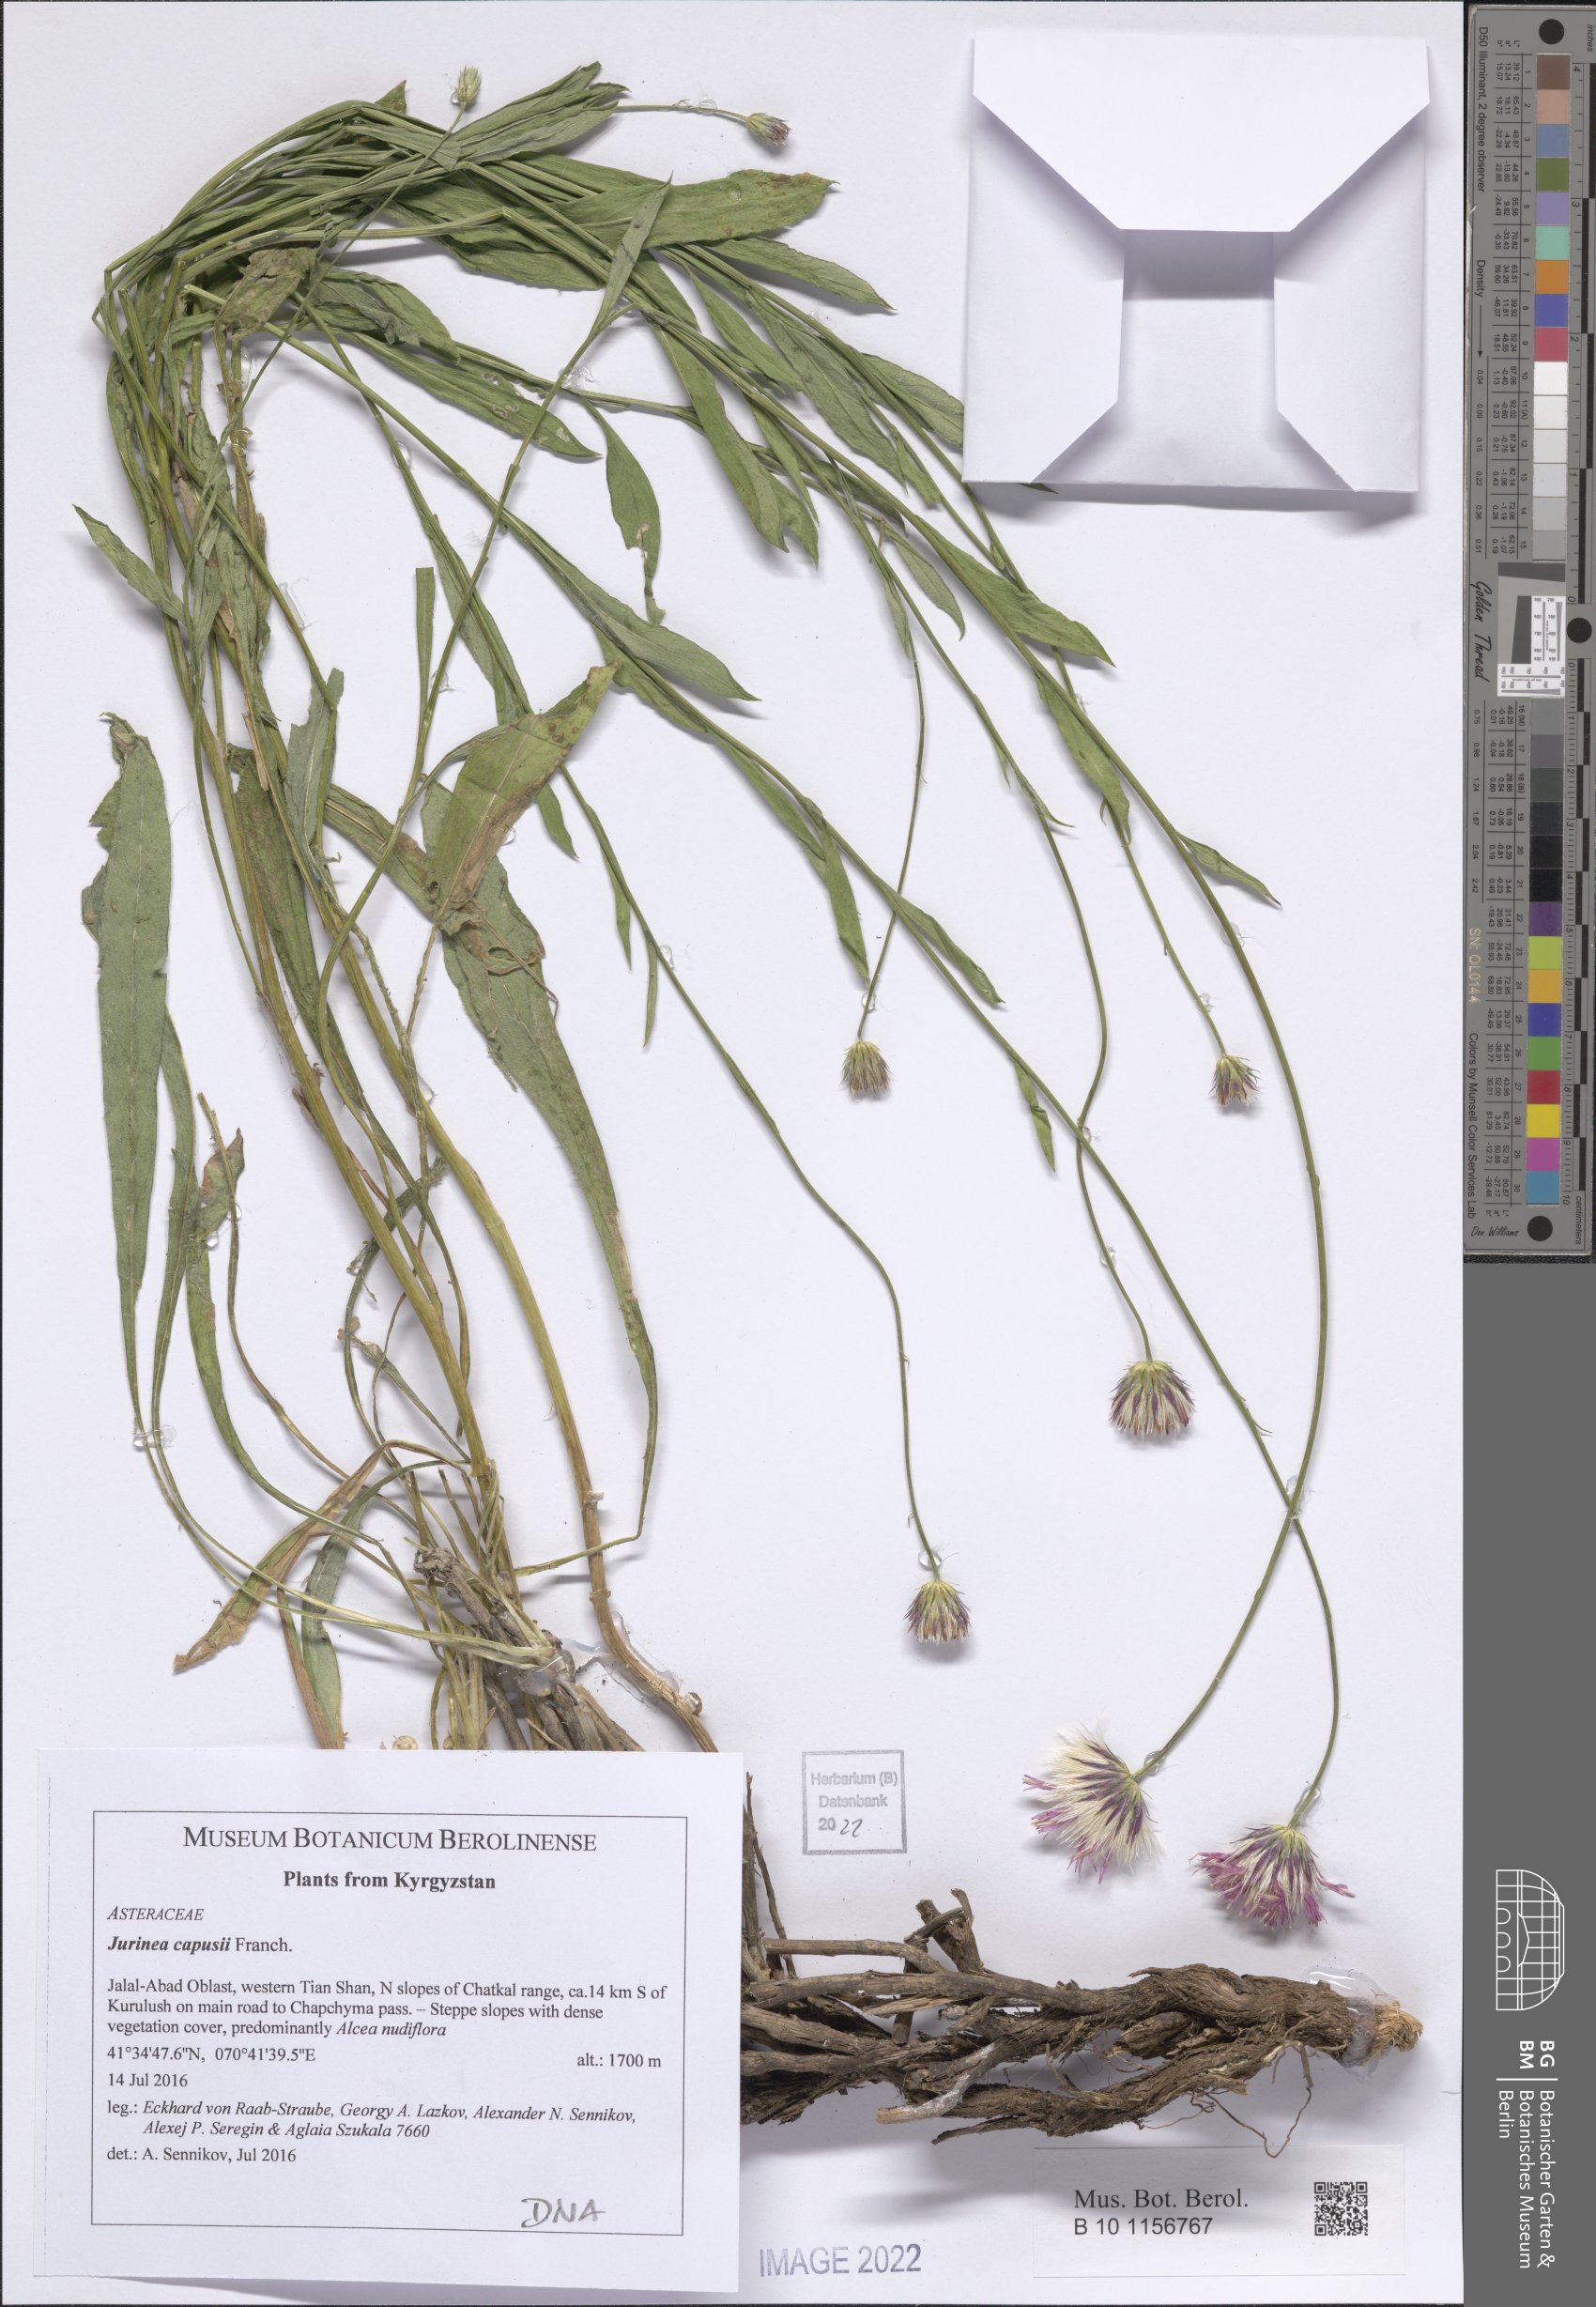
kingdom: Plantae
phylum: Tracheophyta
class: Magnoliopsida
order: Asterales
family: Asteraceae
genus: Jurinea
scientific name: Jurinea capusii
